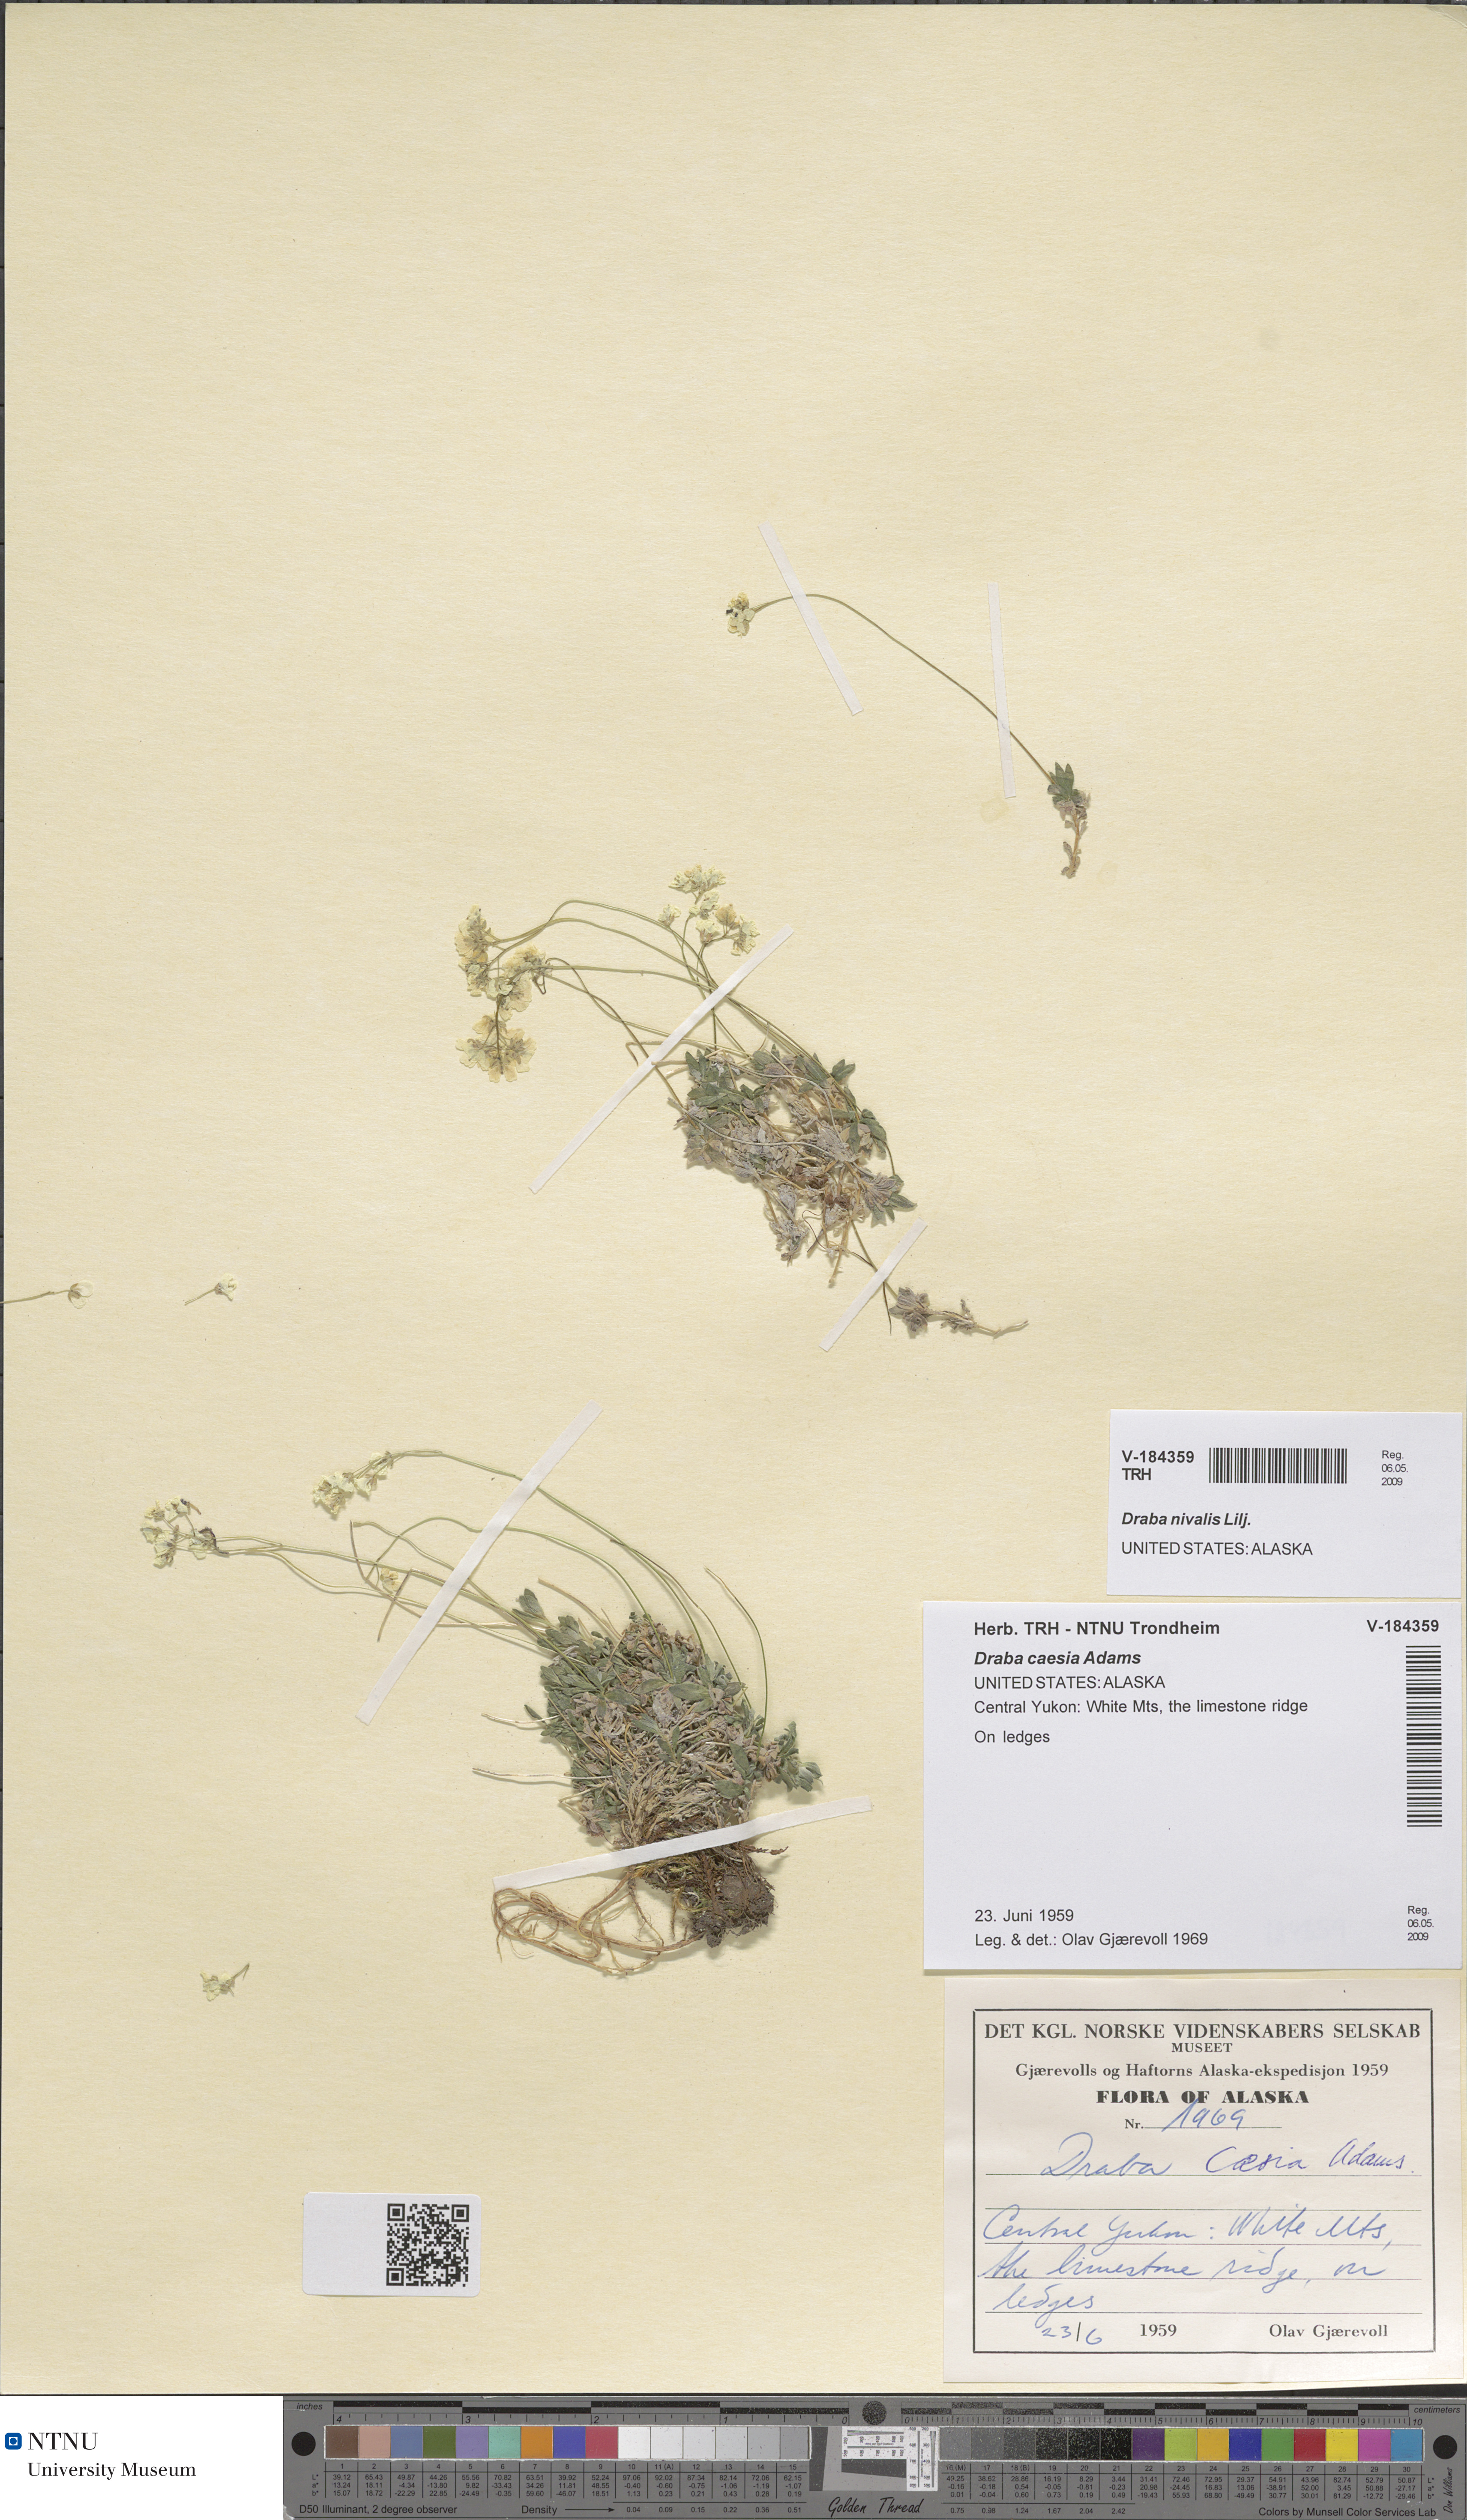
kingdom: Plantae
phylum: Tracheophyta
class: Magnoliopsida
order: Brassicales
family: Brassicaceae
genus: Draba
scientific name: Draba nivalis
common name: Snow draba
